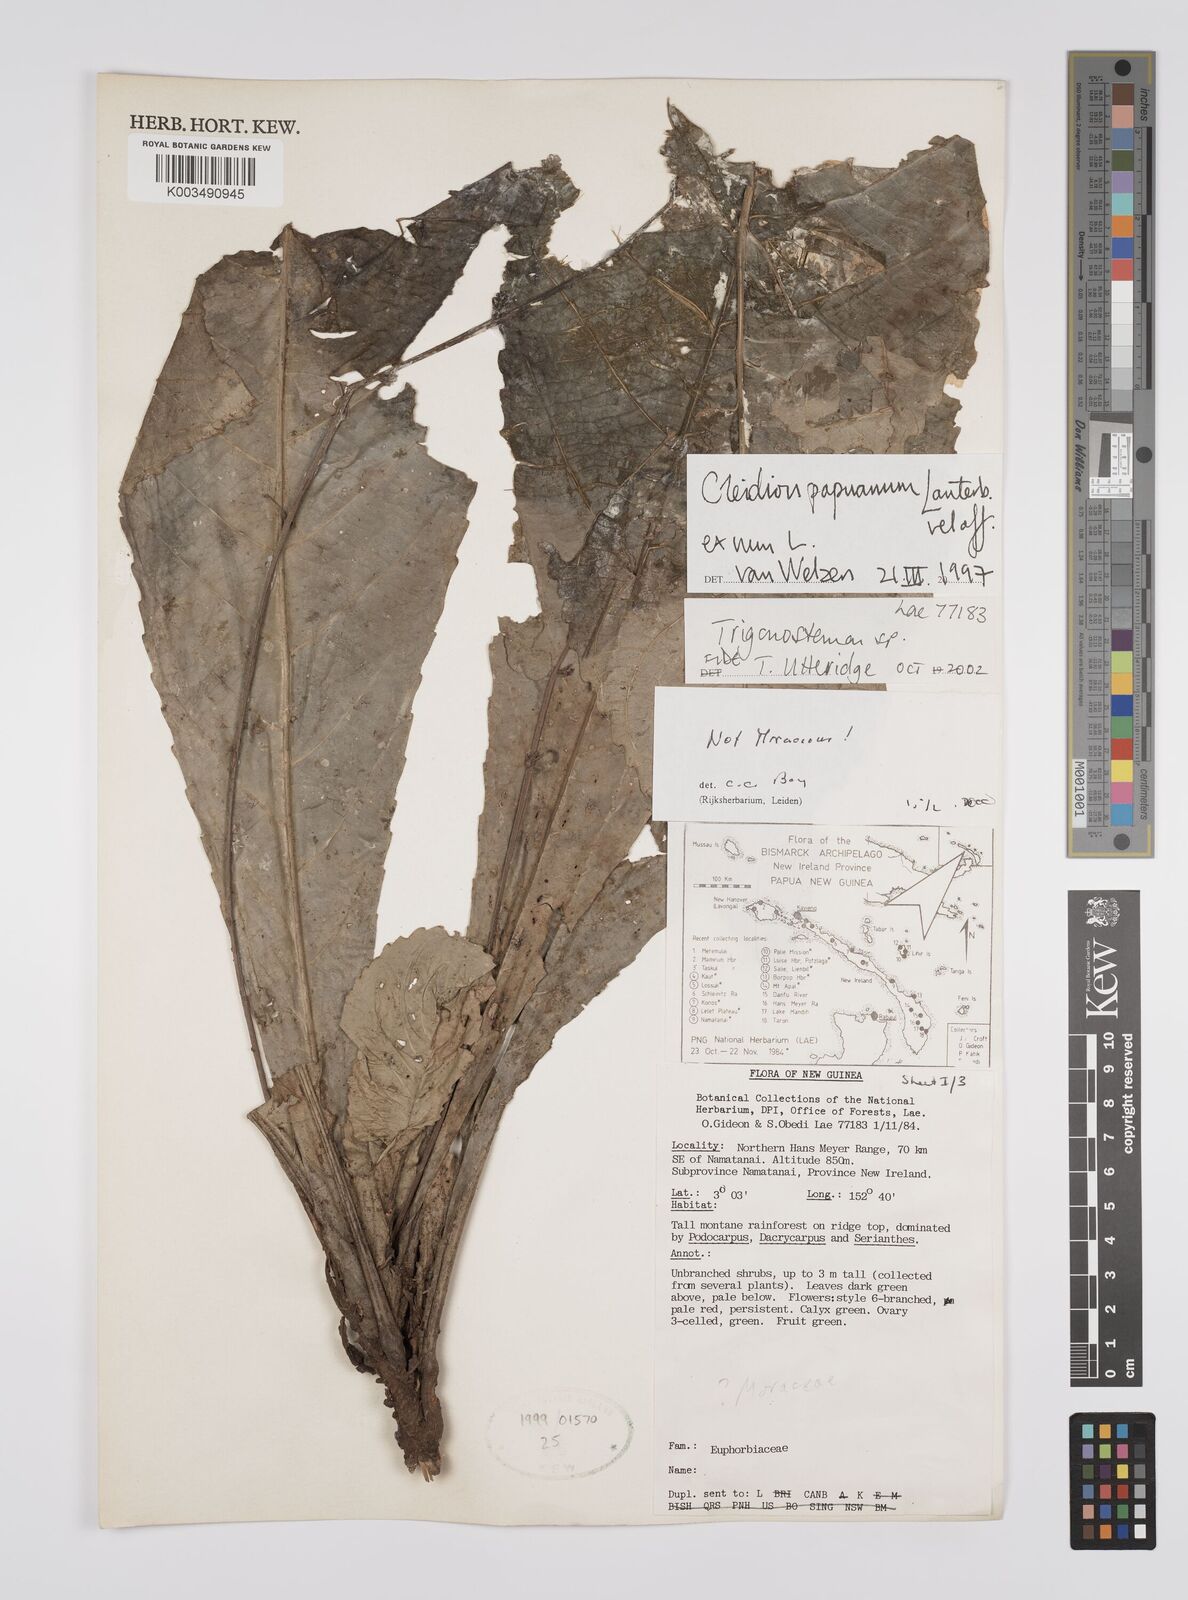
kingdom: Plantae
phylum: Tracheophyta
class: Magnoliopsida
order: Malpighiales
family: Euphorbiaceae
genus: Cleidion
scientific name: Cleidion papuanum
